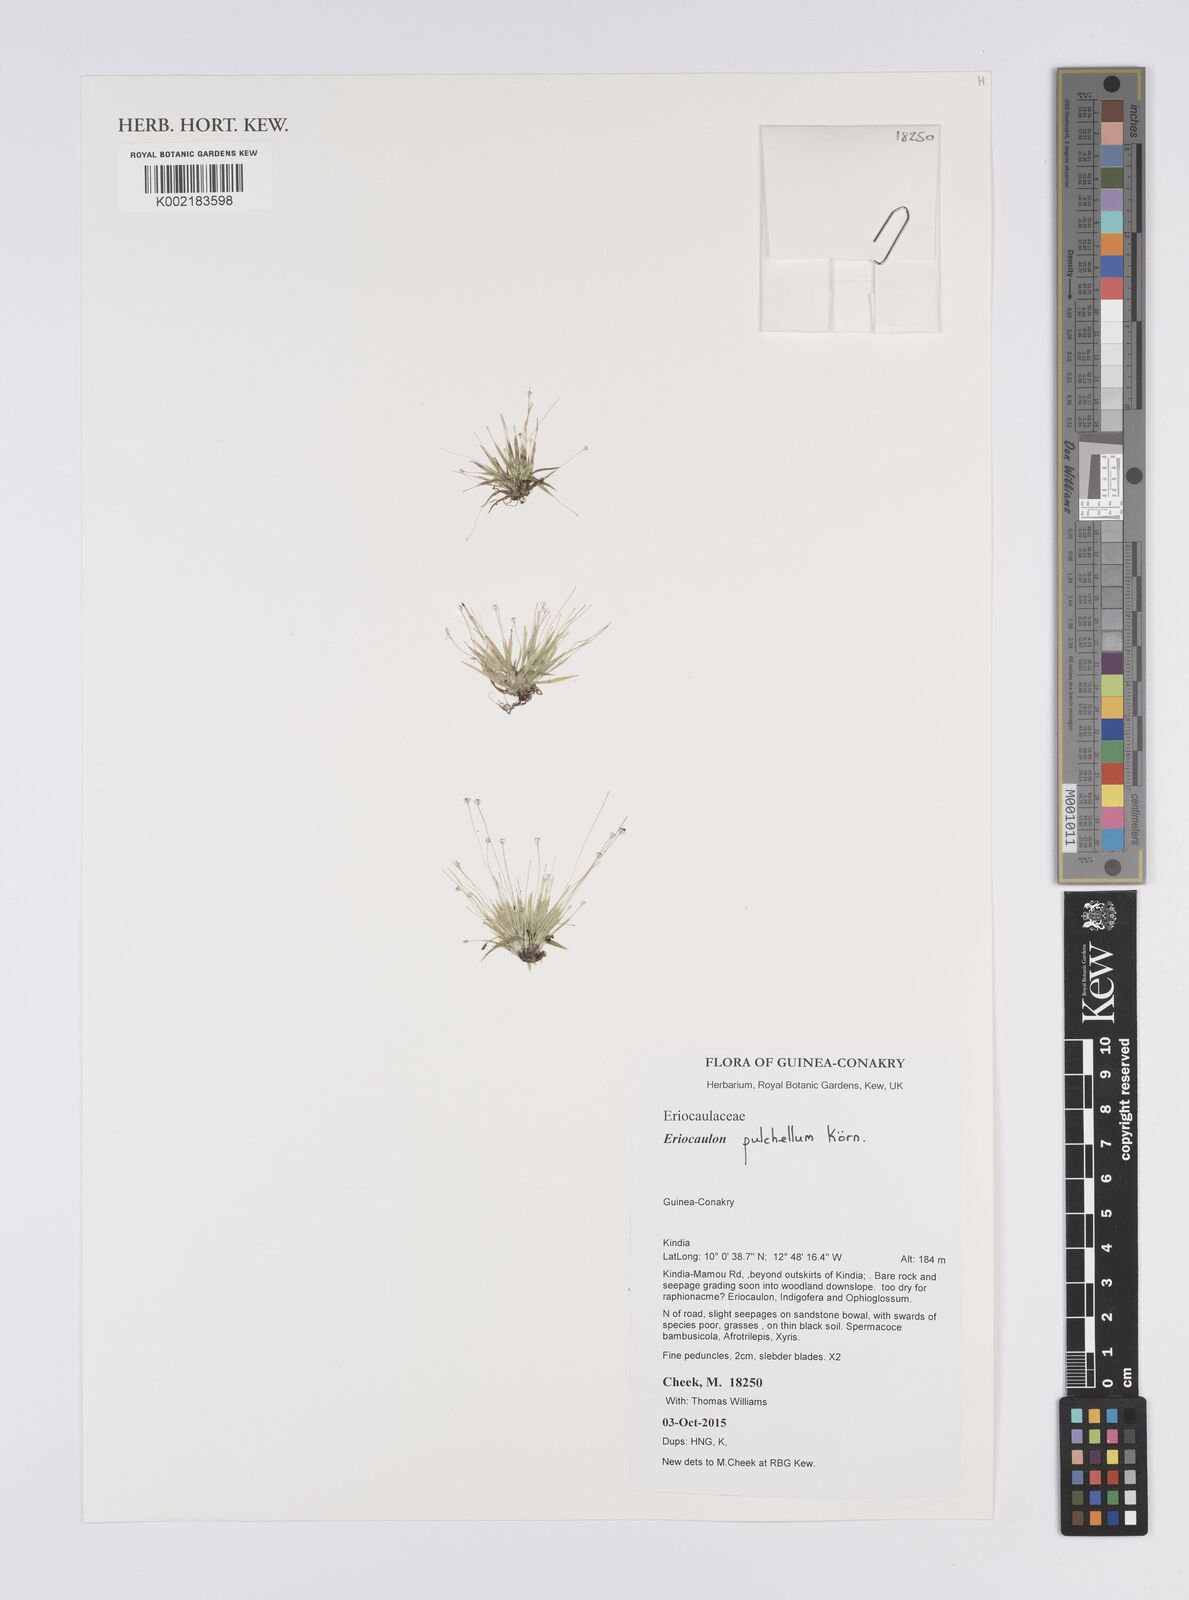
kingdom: Plantae
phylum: Tracheophyta
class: Liliopsida
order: Poales
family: Eriocaulaceae
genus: Eriocaulon
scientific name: Eriocaulon pulchellum
